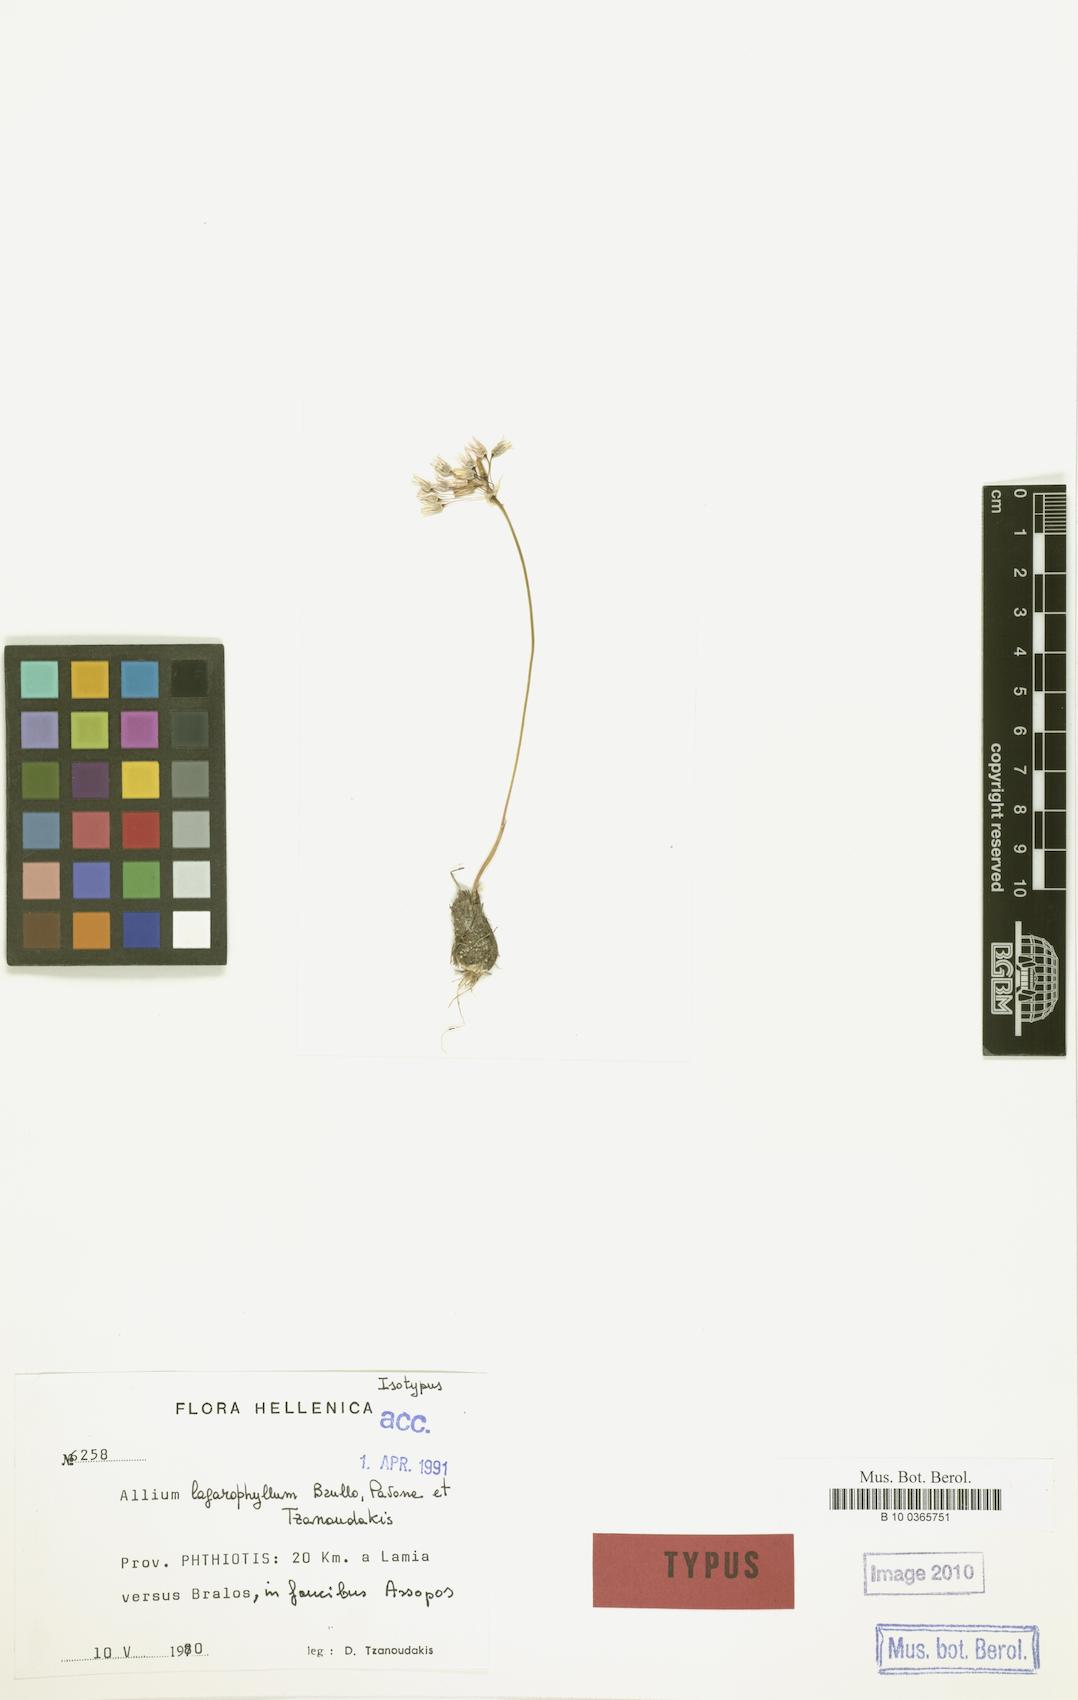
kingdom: Plantae
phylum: Tracheophyta
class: Liliopsida
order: Asparagales
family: Amaryllidaceae
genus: Allium
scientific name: Allium lagarophyllum
